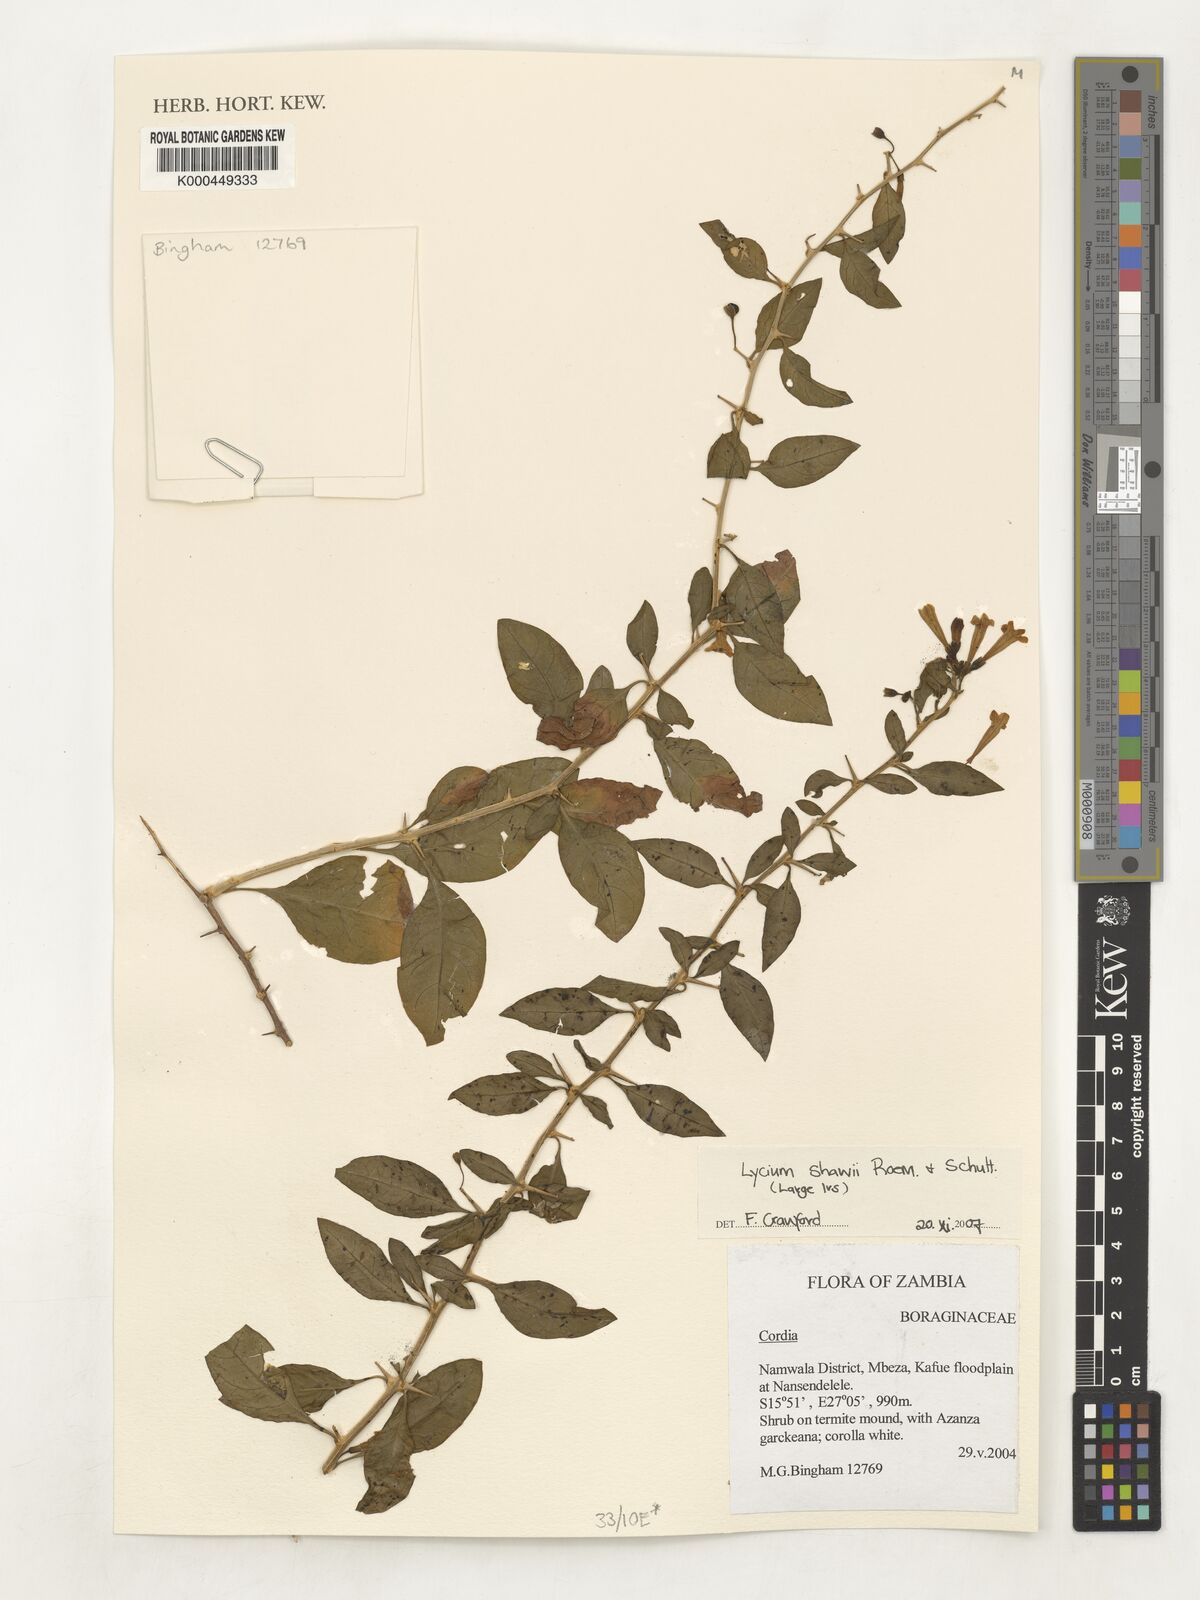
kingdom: Plantae
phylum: Tracheophyta
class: Magnoliopsida
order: Solanales
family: Solanaceae
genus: Lycium
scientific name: Lycium shawii
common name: Boxthorn
